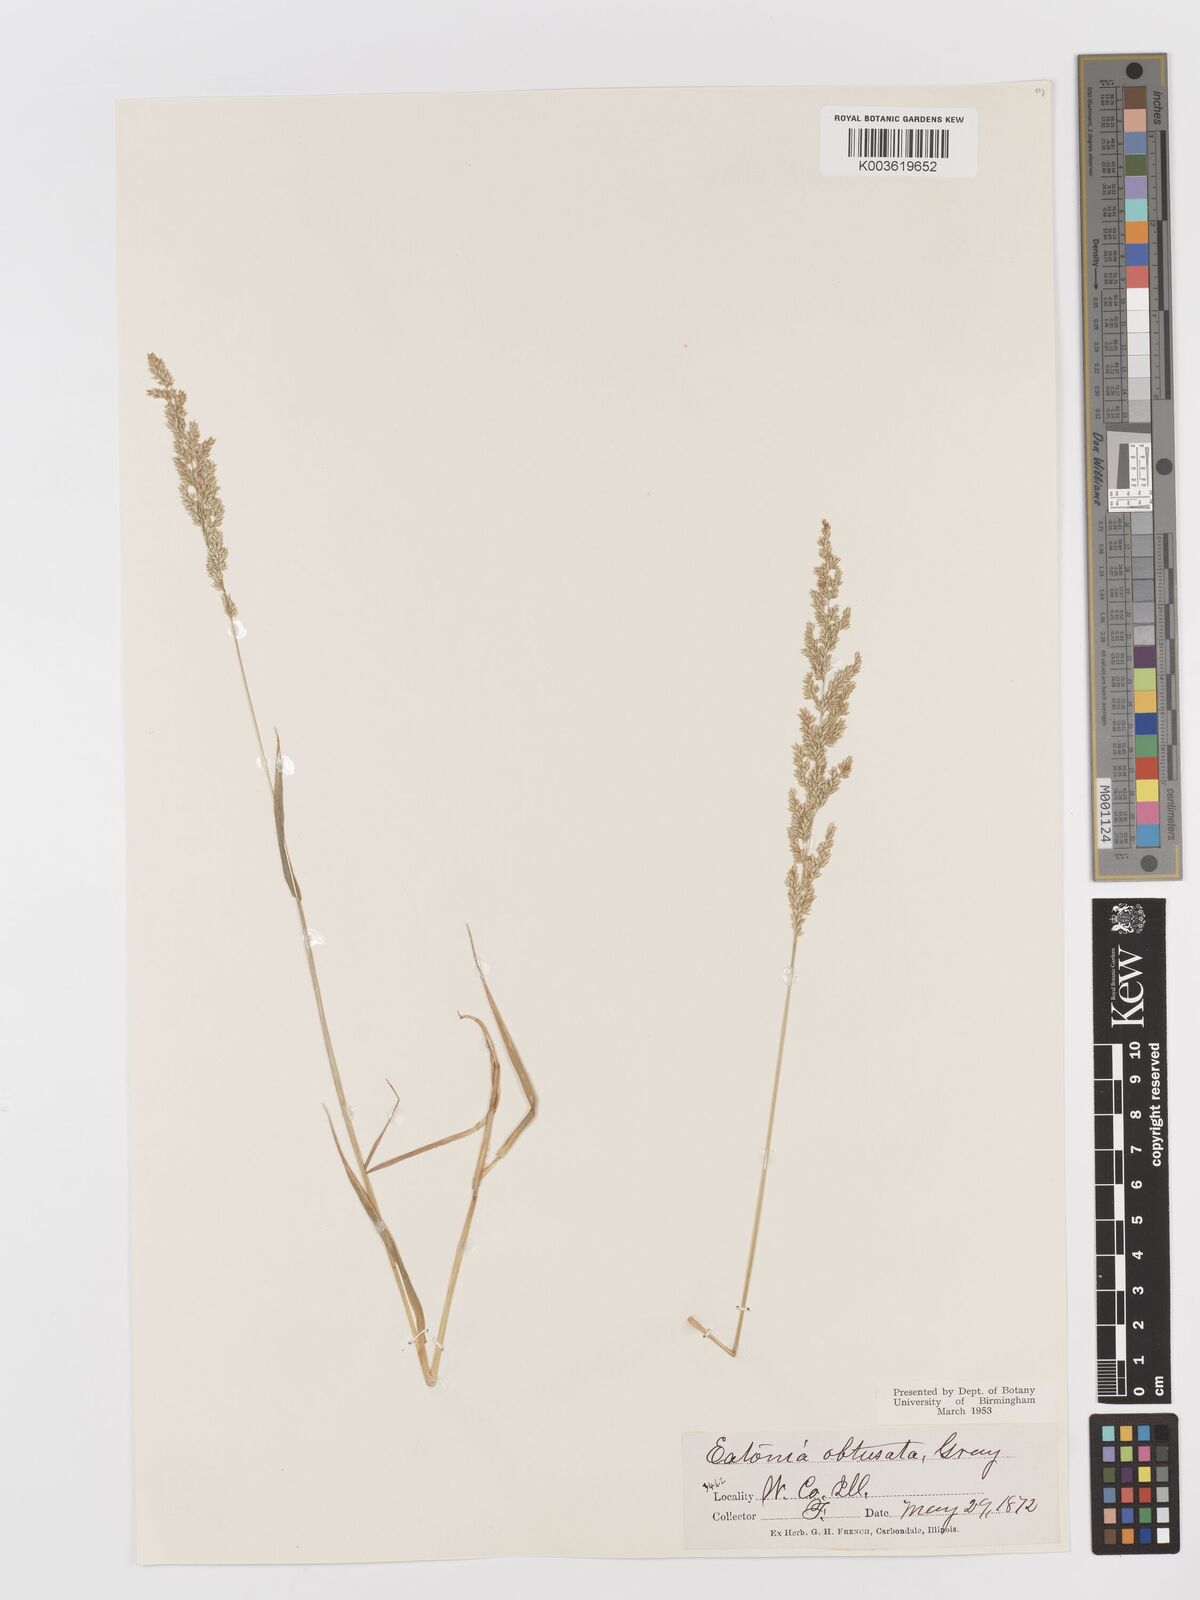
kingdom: Plantae
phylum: Tracheophyta
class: Liliopsida
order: Poales
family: Poaceae
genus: Sphenopholis
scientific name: Sphenopholis obtusata
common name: Prairie grass
